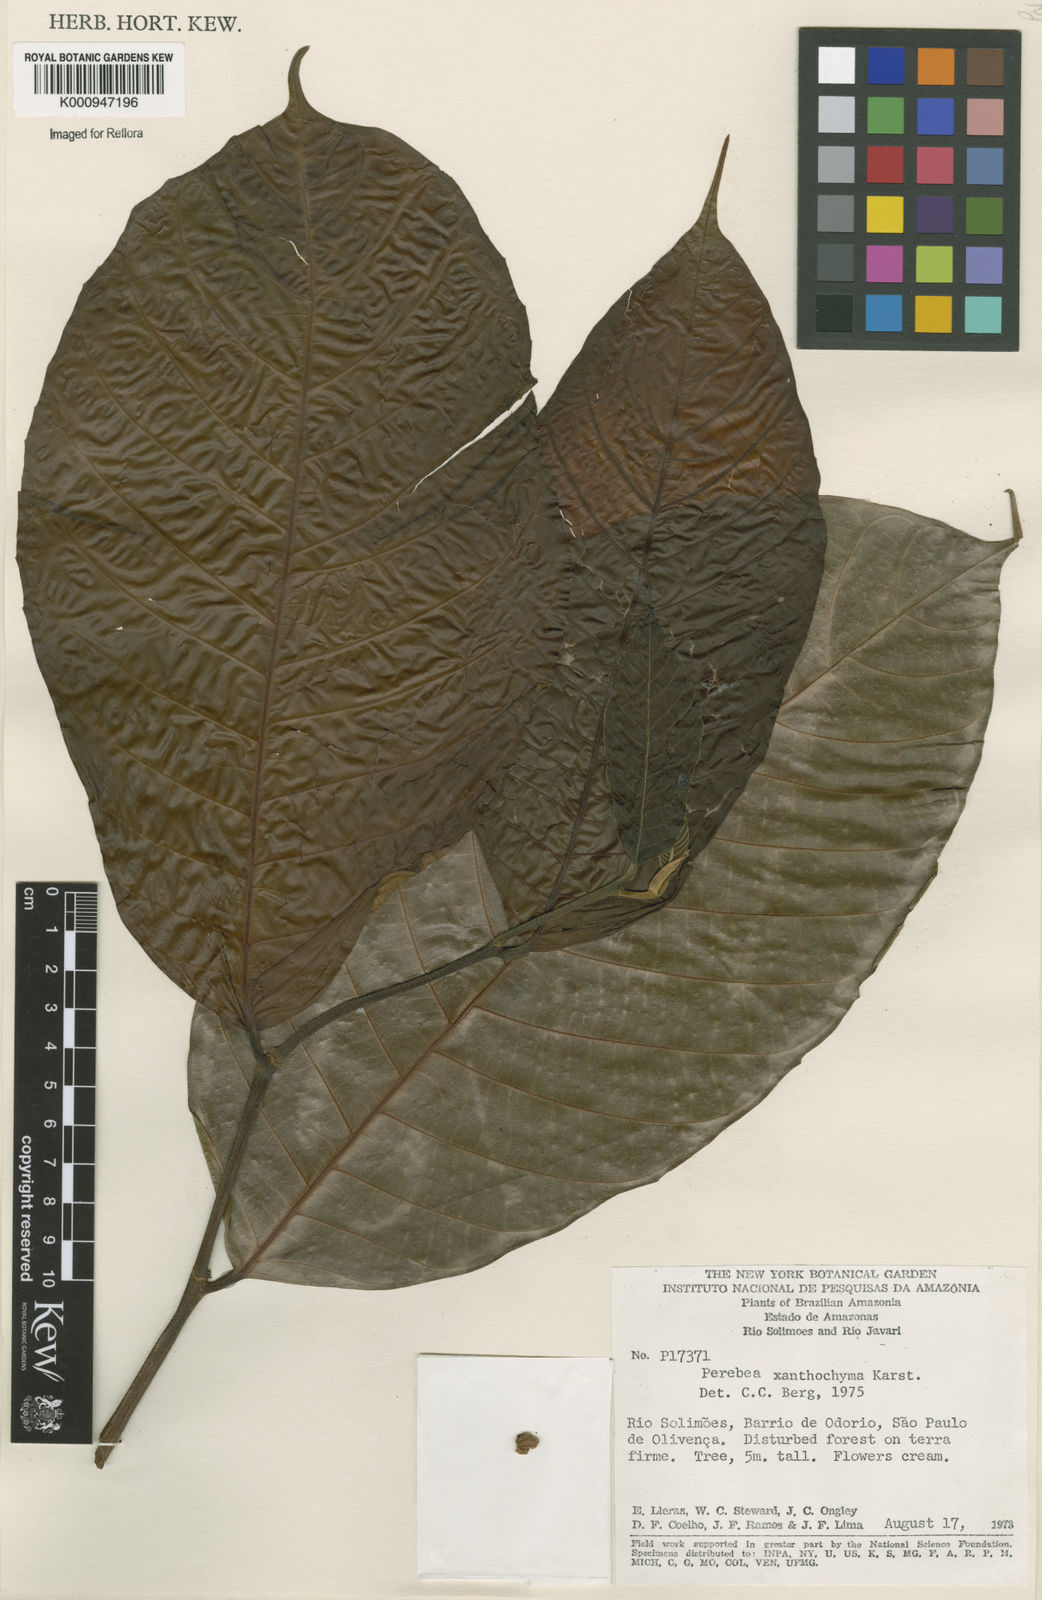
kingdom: Plantae
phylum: Tracheophyta
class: Magnoliopsida
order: Rosales
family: Moraceae
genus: Perebea
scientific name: Perebea xanthochyma
